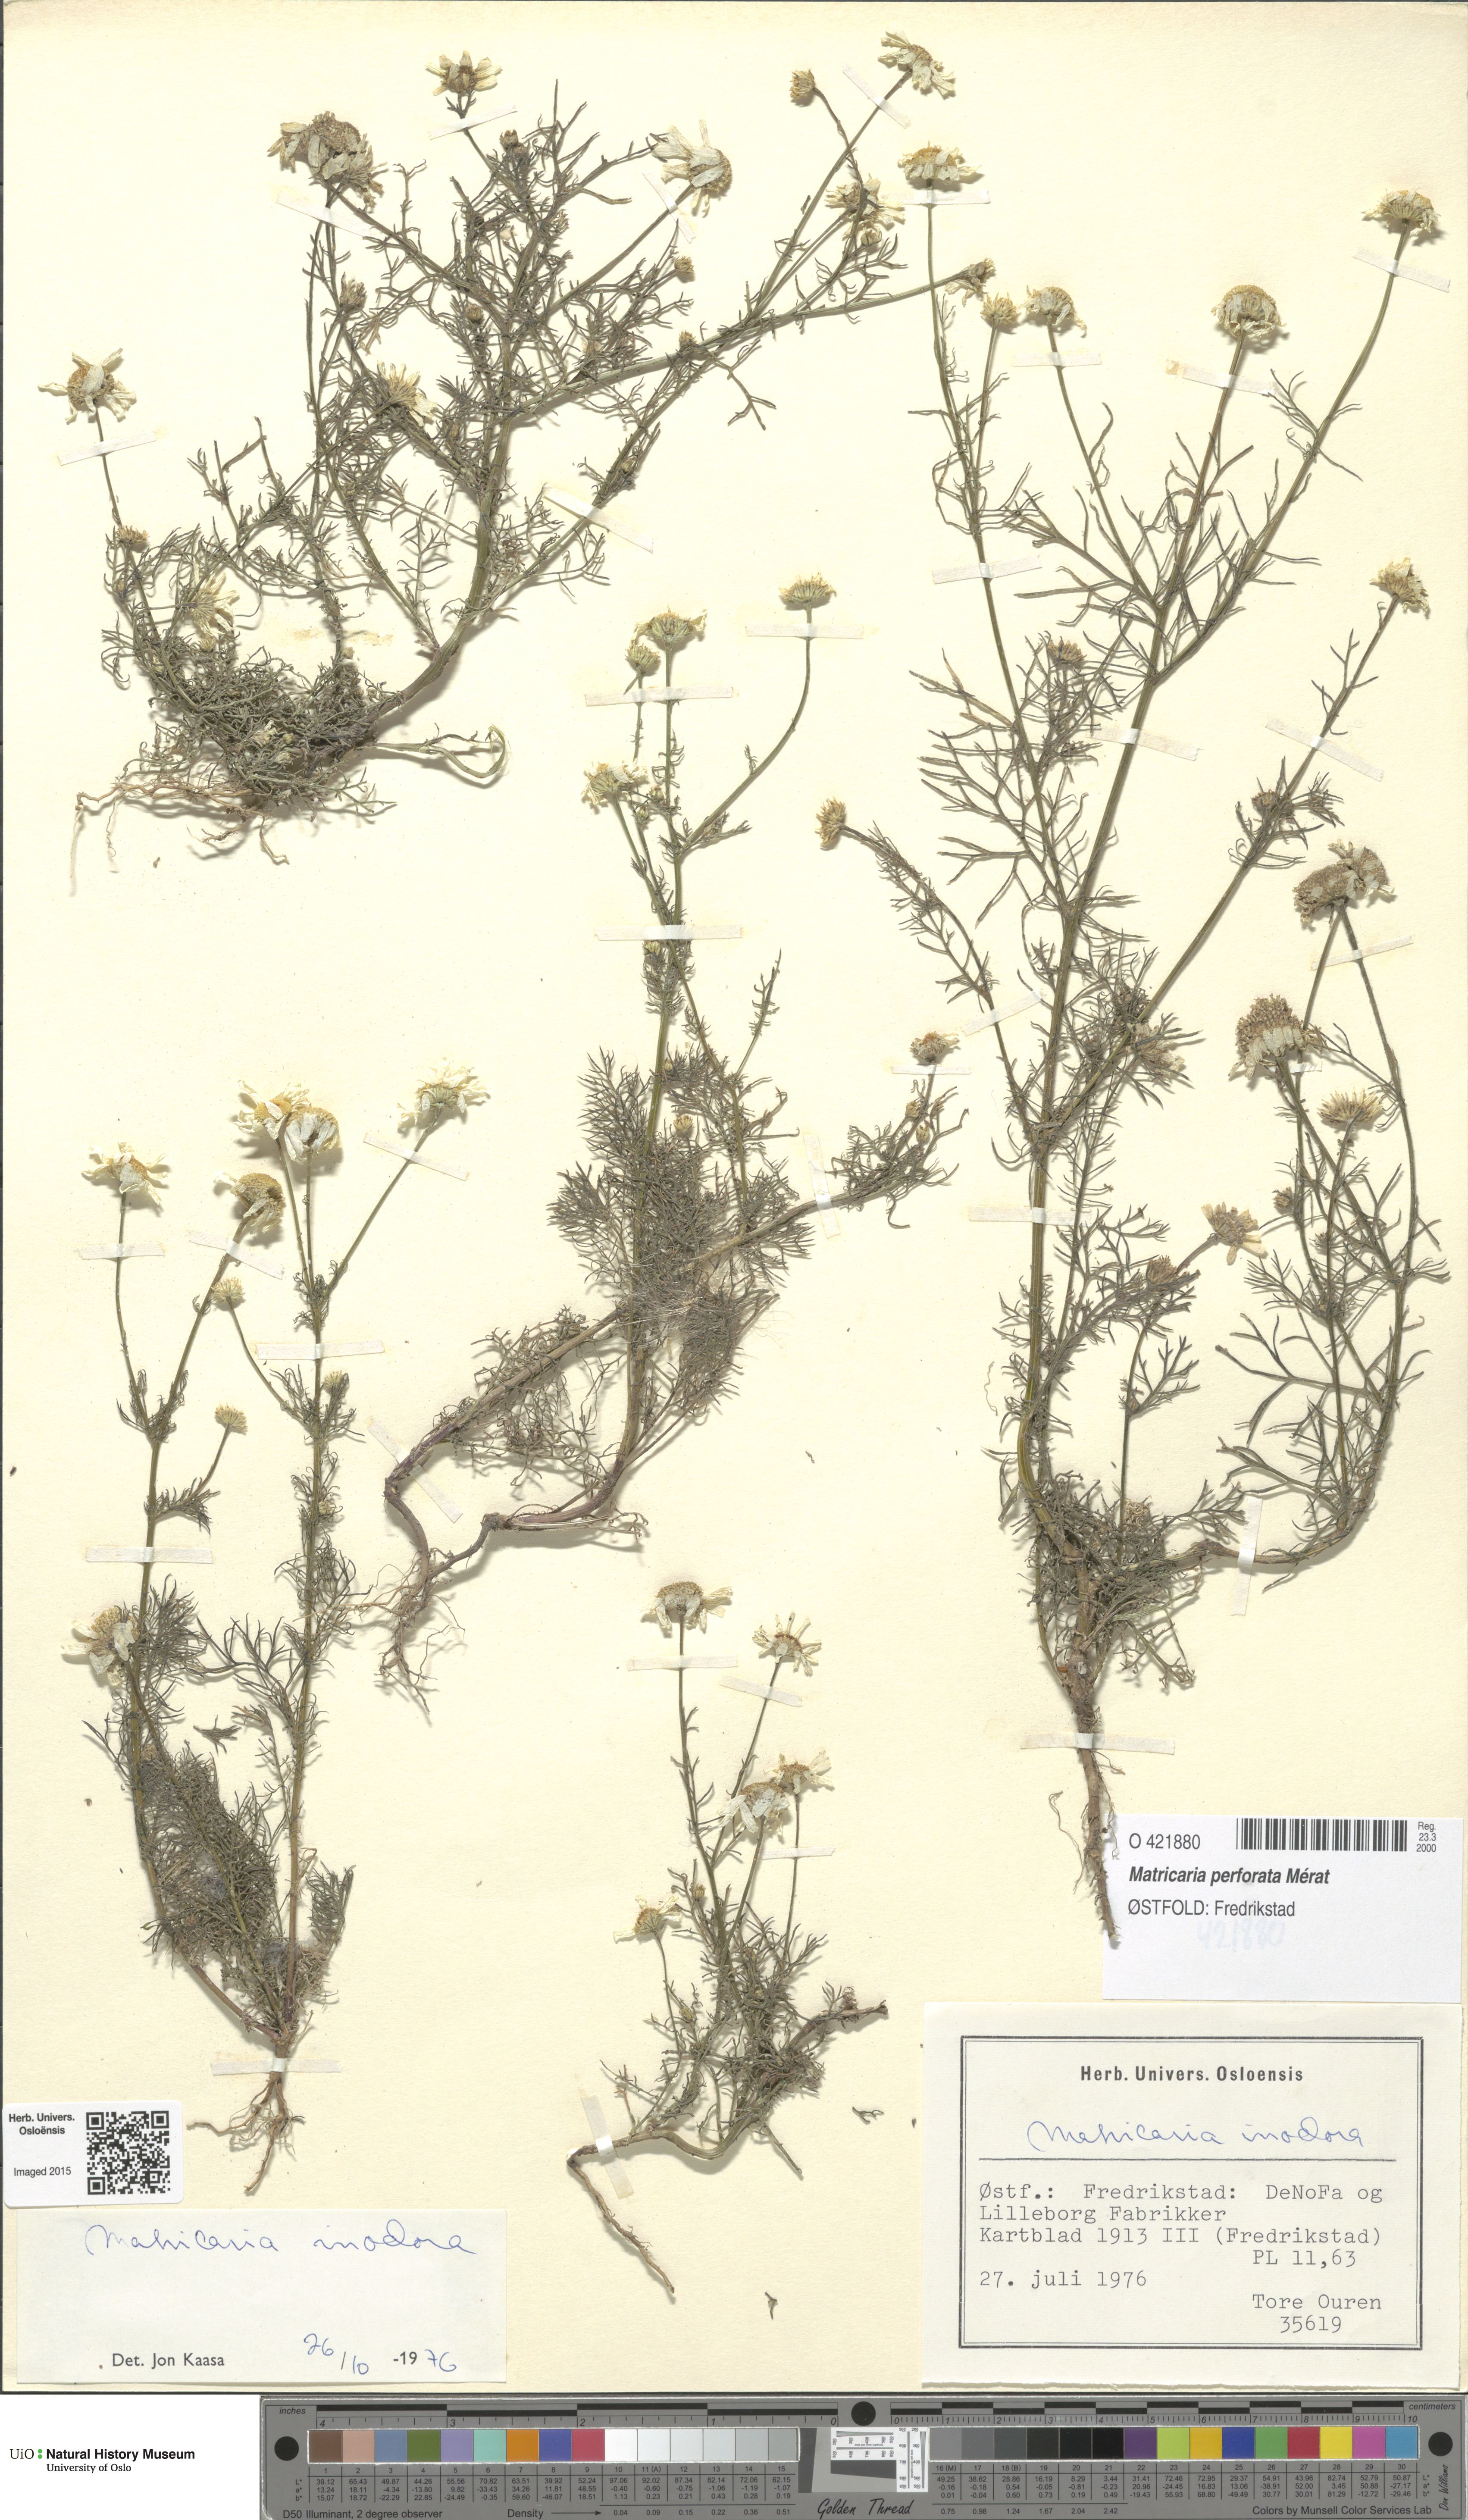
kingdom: Plantae
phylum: Tracheophyta
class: Magnoliopsida
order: Asterales
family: Asteraceae
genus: Tripleurospermum
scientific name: Tripleurospermum inodorum
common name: Scentless mayweed
